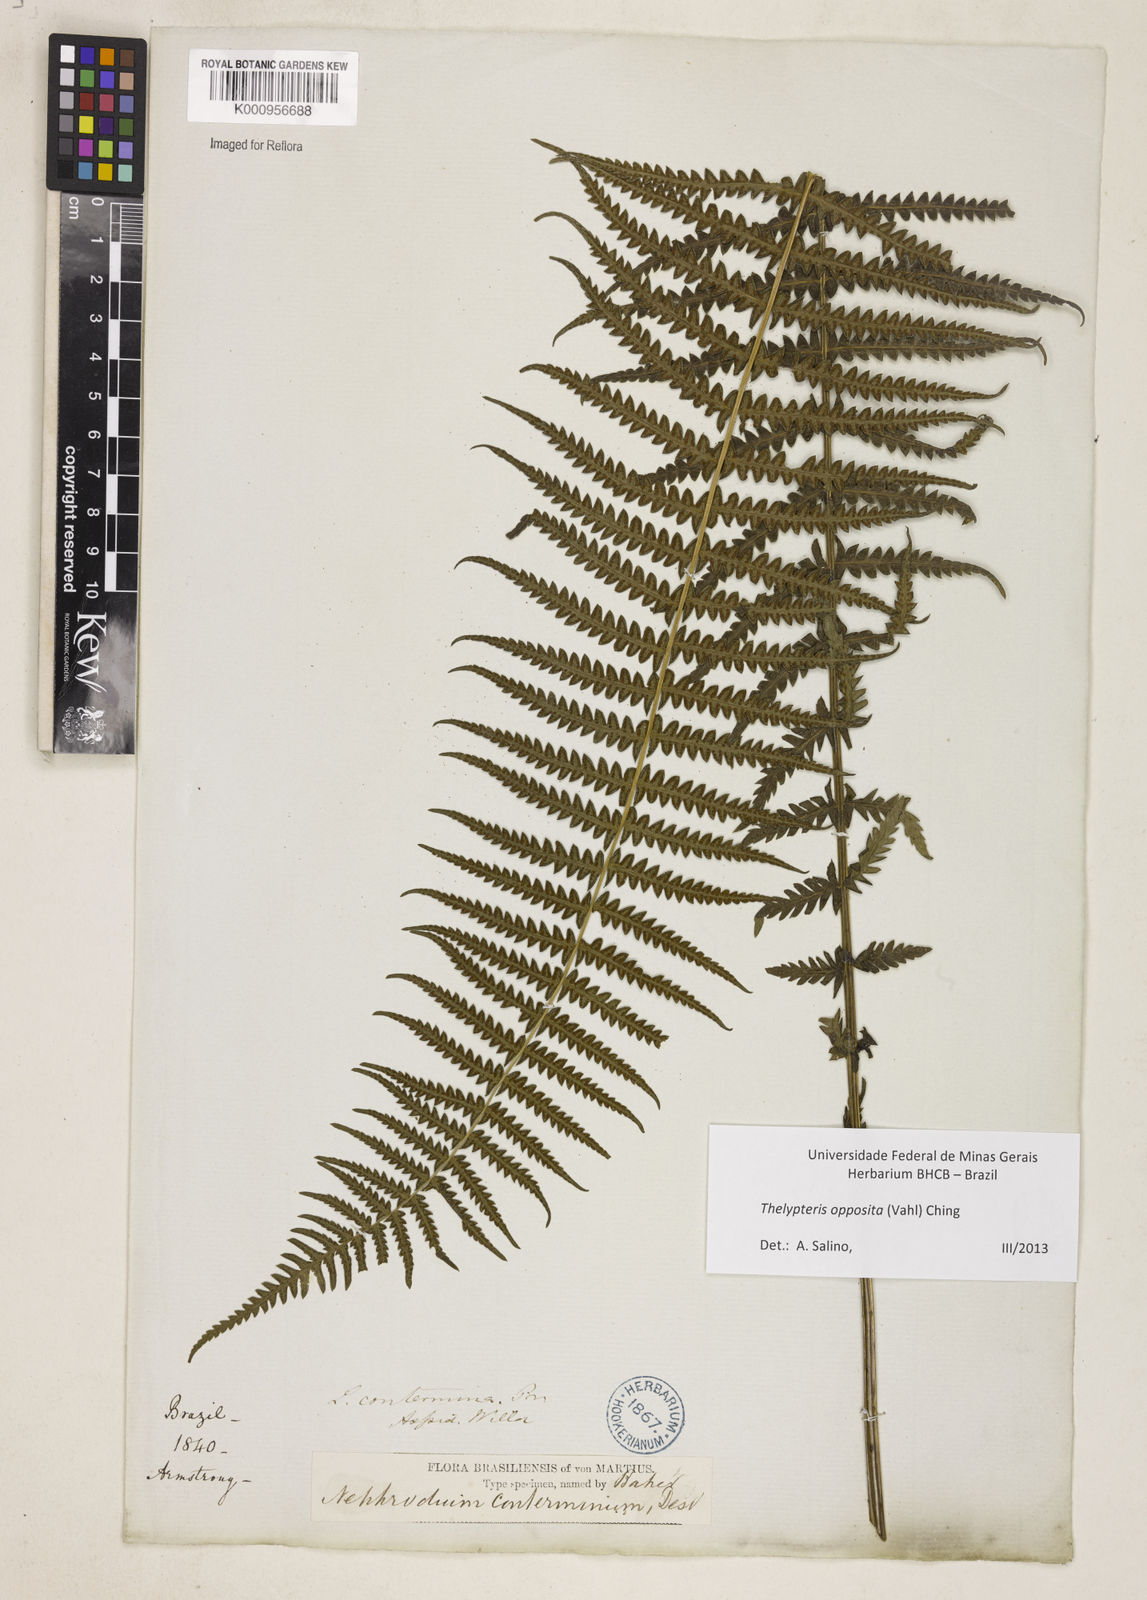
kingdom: Plantae
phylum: Tracheophyta
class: Polypodiopsida
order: Polypodiales
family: Thelypteridaceae
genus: Amauropelta
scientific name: Amauropelta opposita
